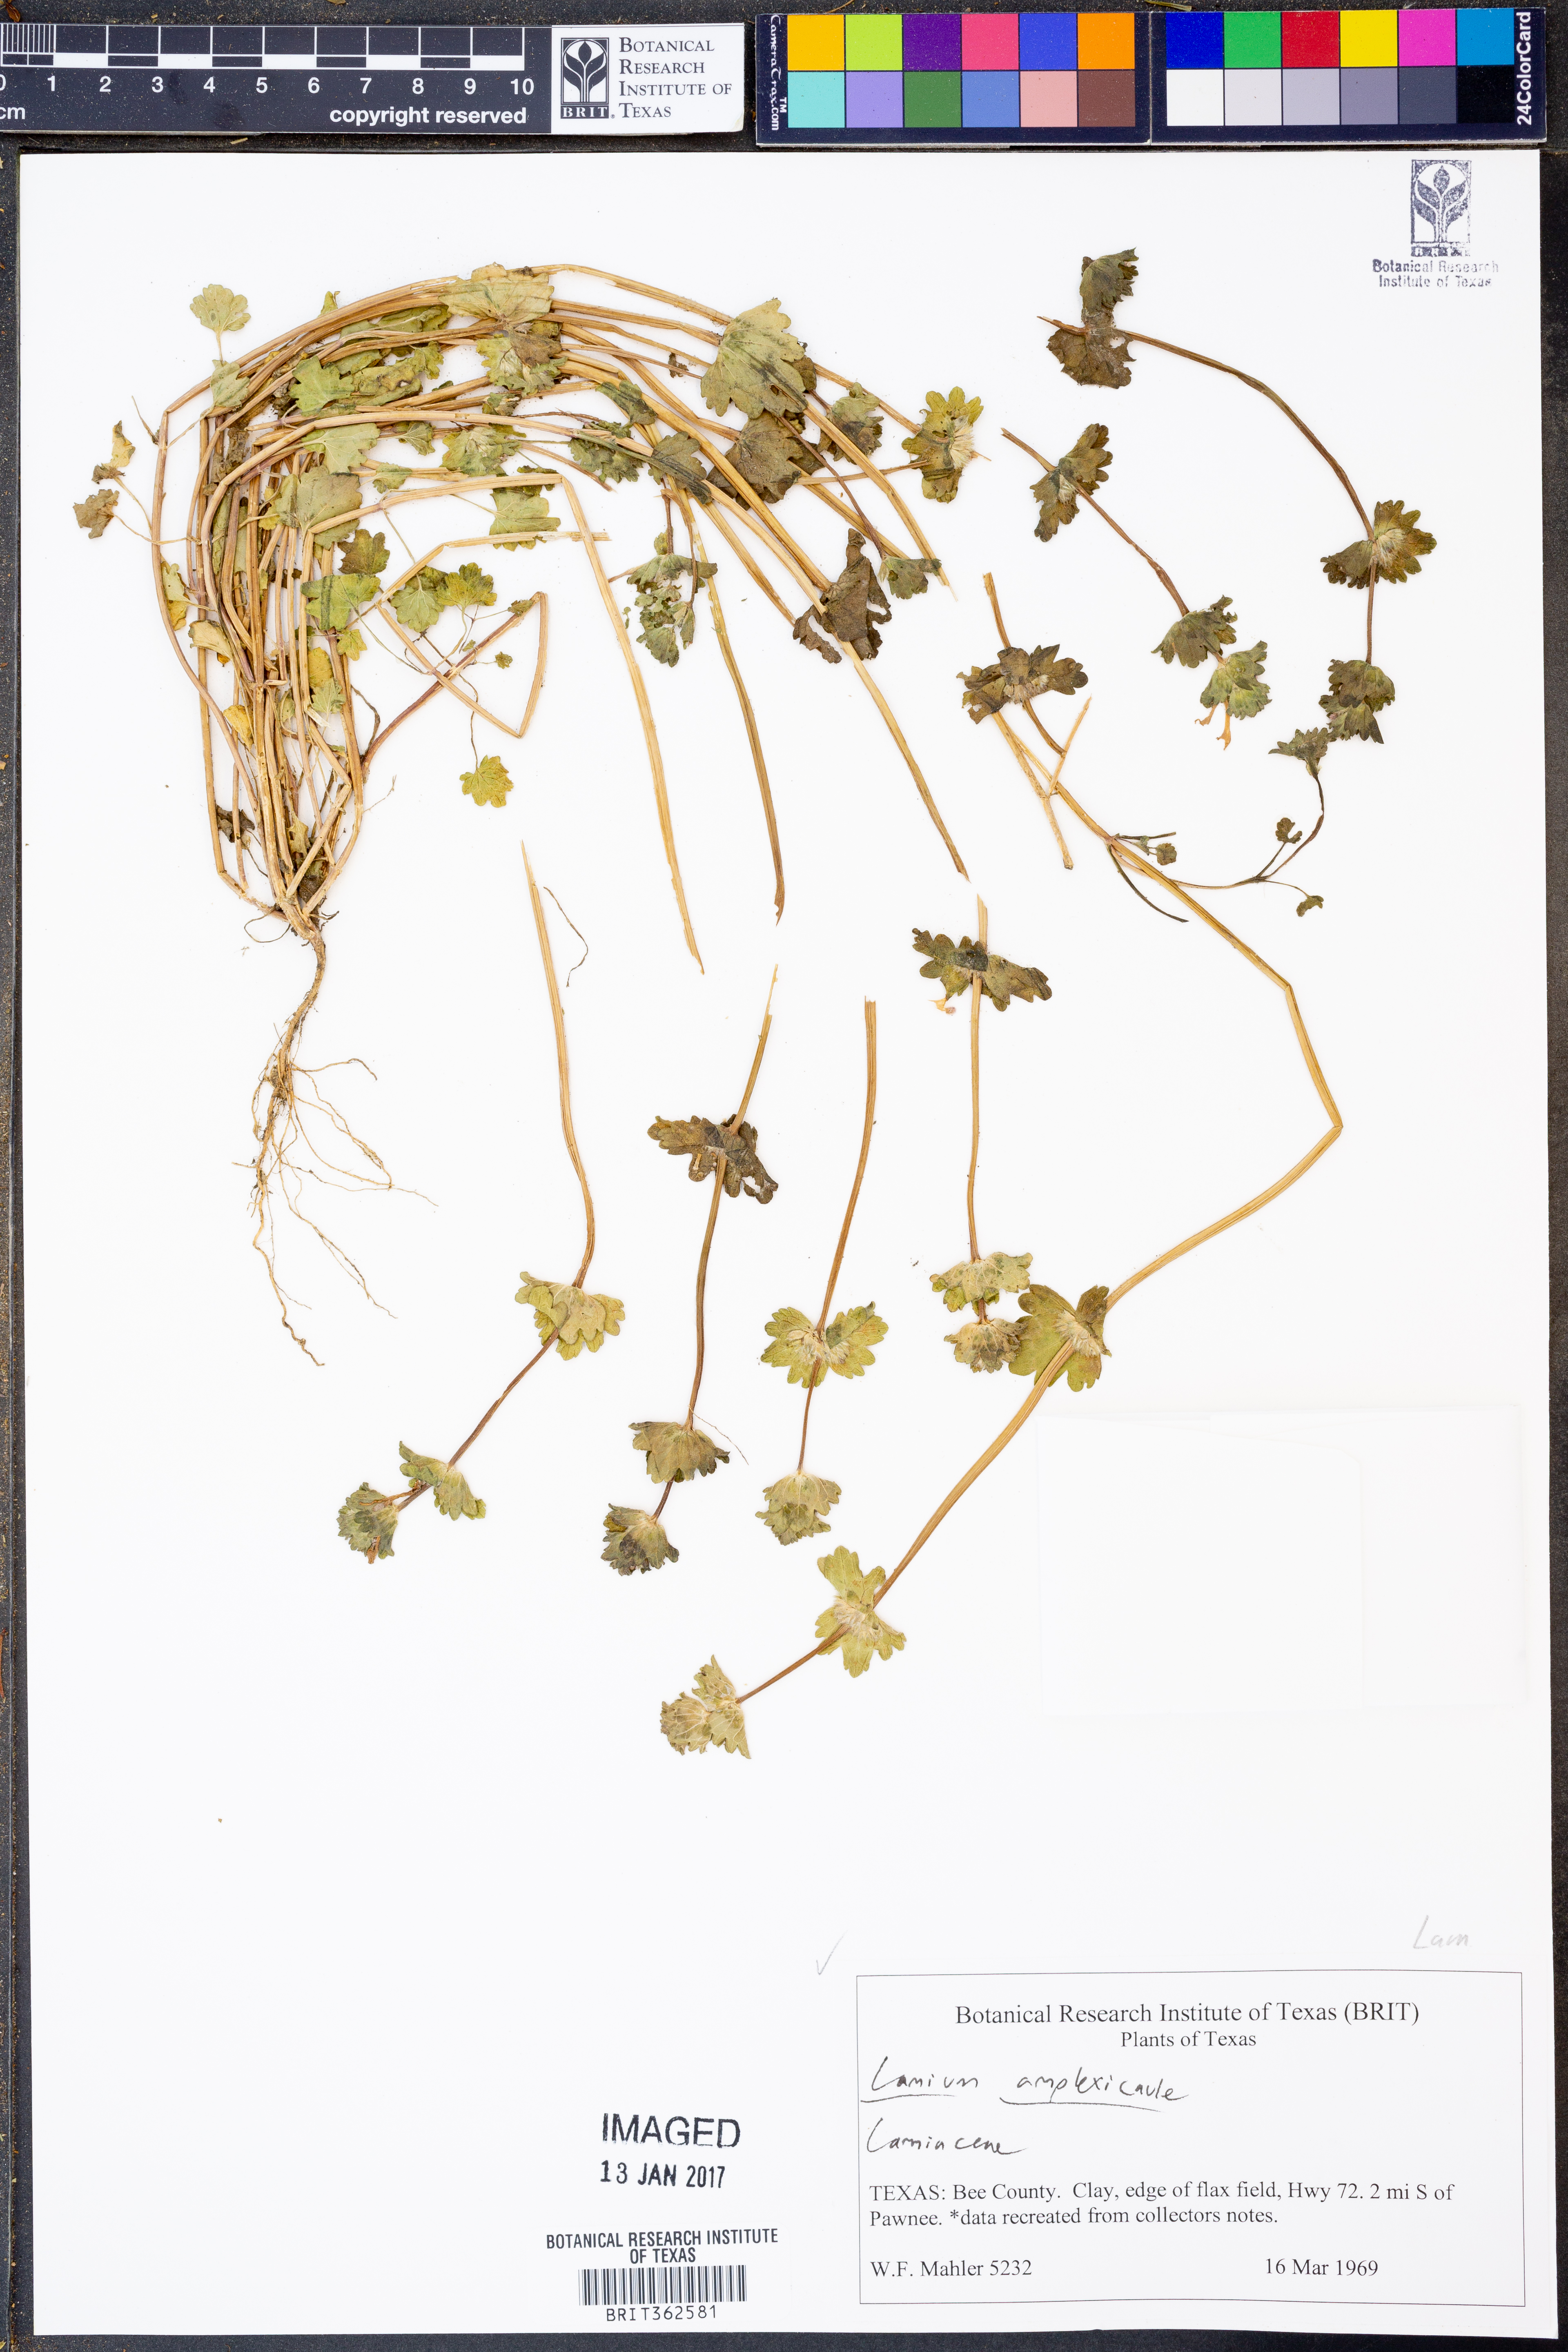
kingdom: Plantae
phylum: Tracheophyta
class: Magnoliopsida
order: Lamiales
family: Lamiaceae
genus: Lamium
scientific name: Lamium amplexicaule
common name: Henbit dead-nettle
